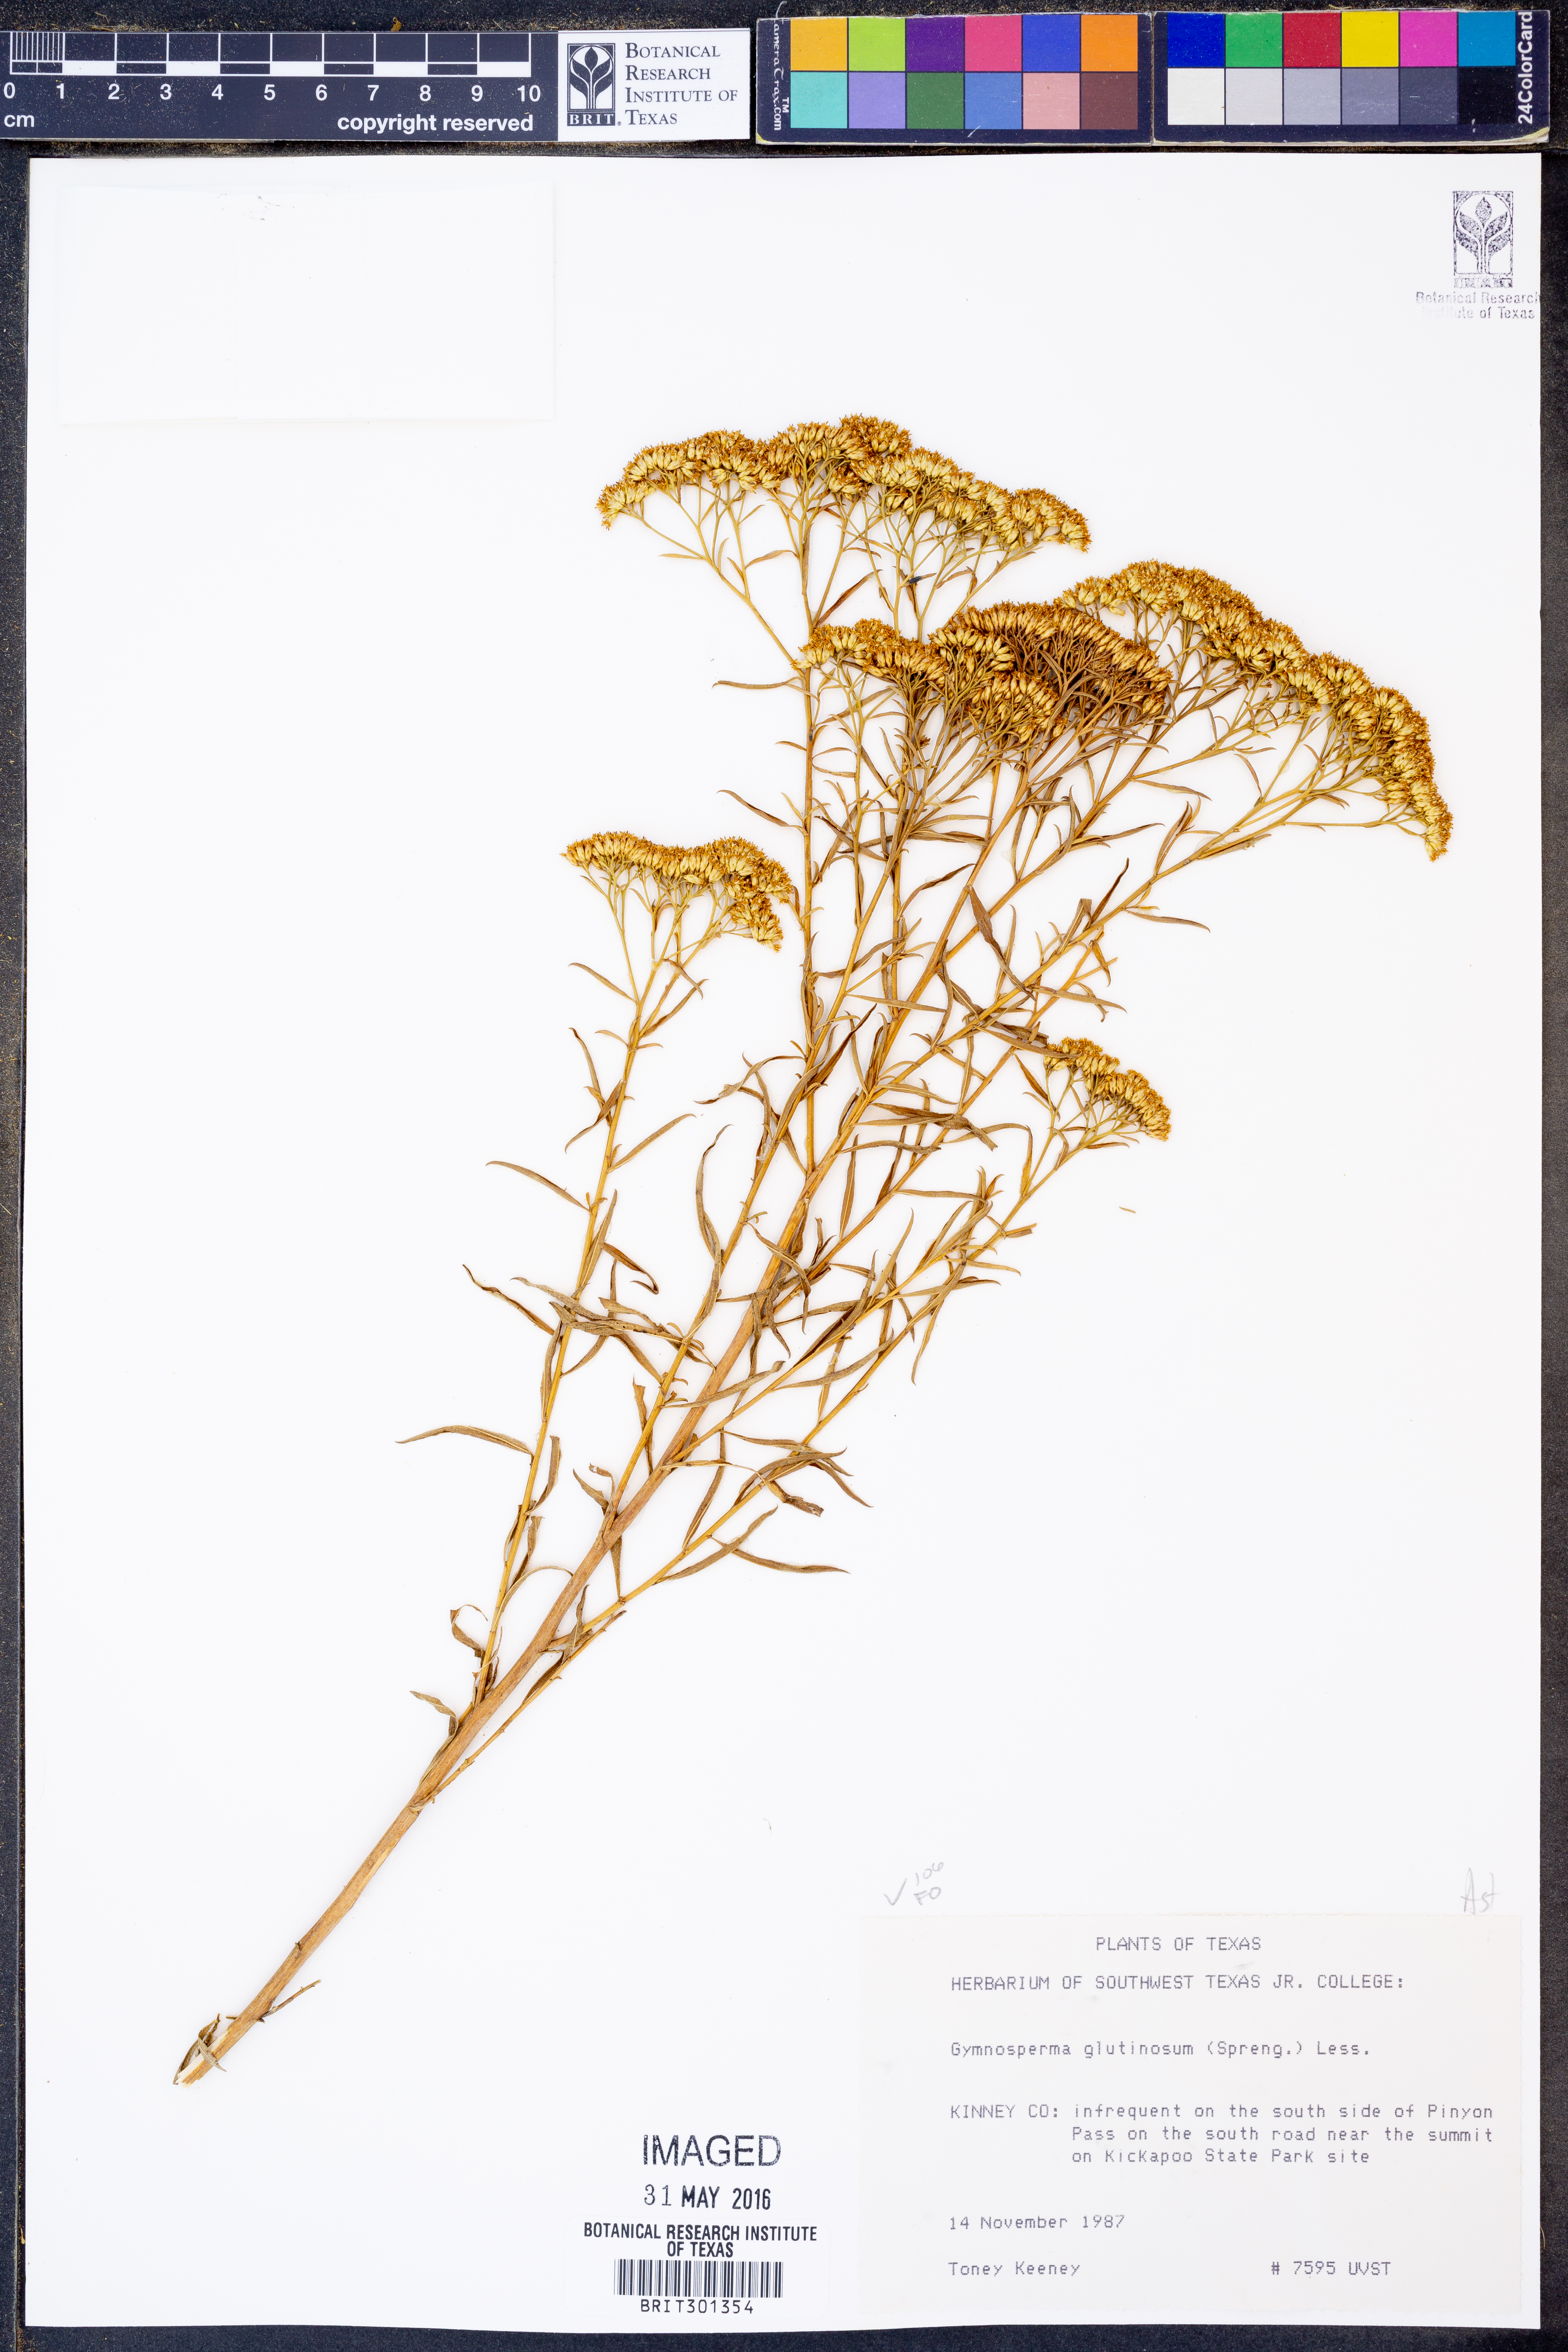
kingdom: Plantae
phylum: Tracheophyta
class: Magnoliopsida
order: Asterales
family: Asteraceae
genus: Gymnosperma
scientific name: Gymnosperma glutinosum
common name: Gumhead
